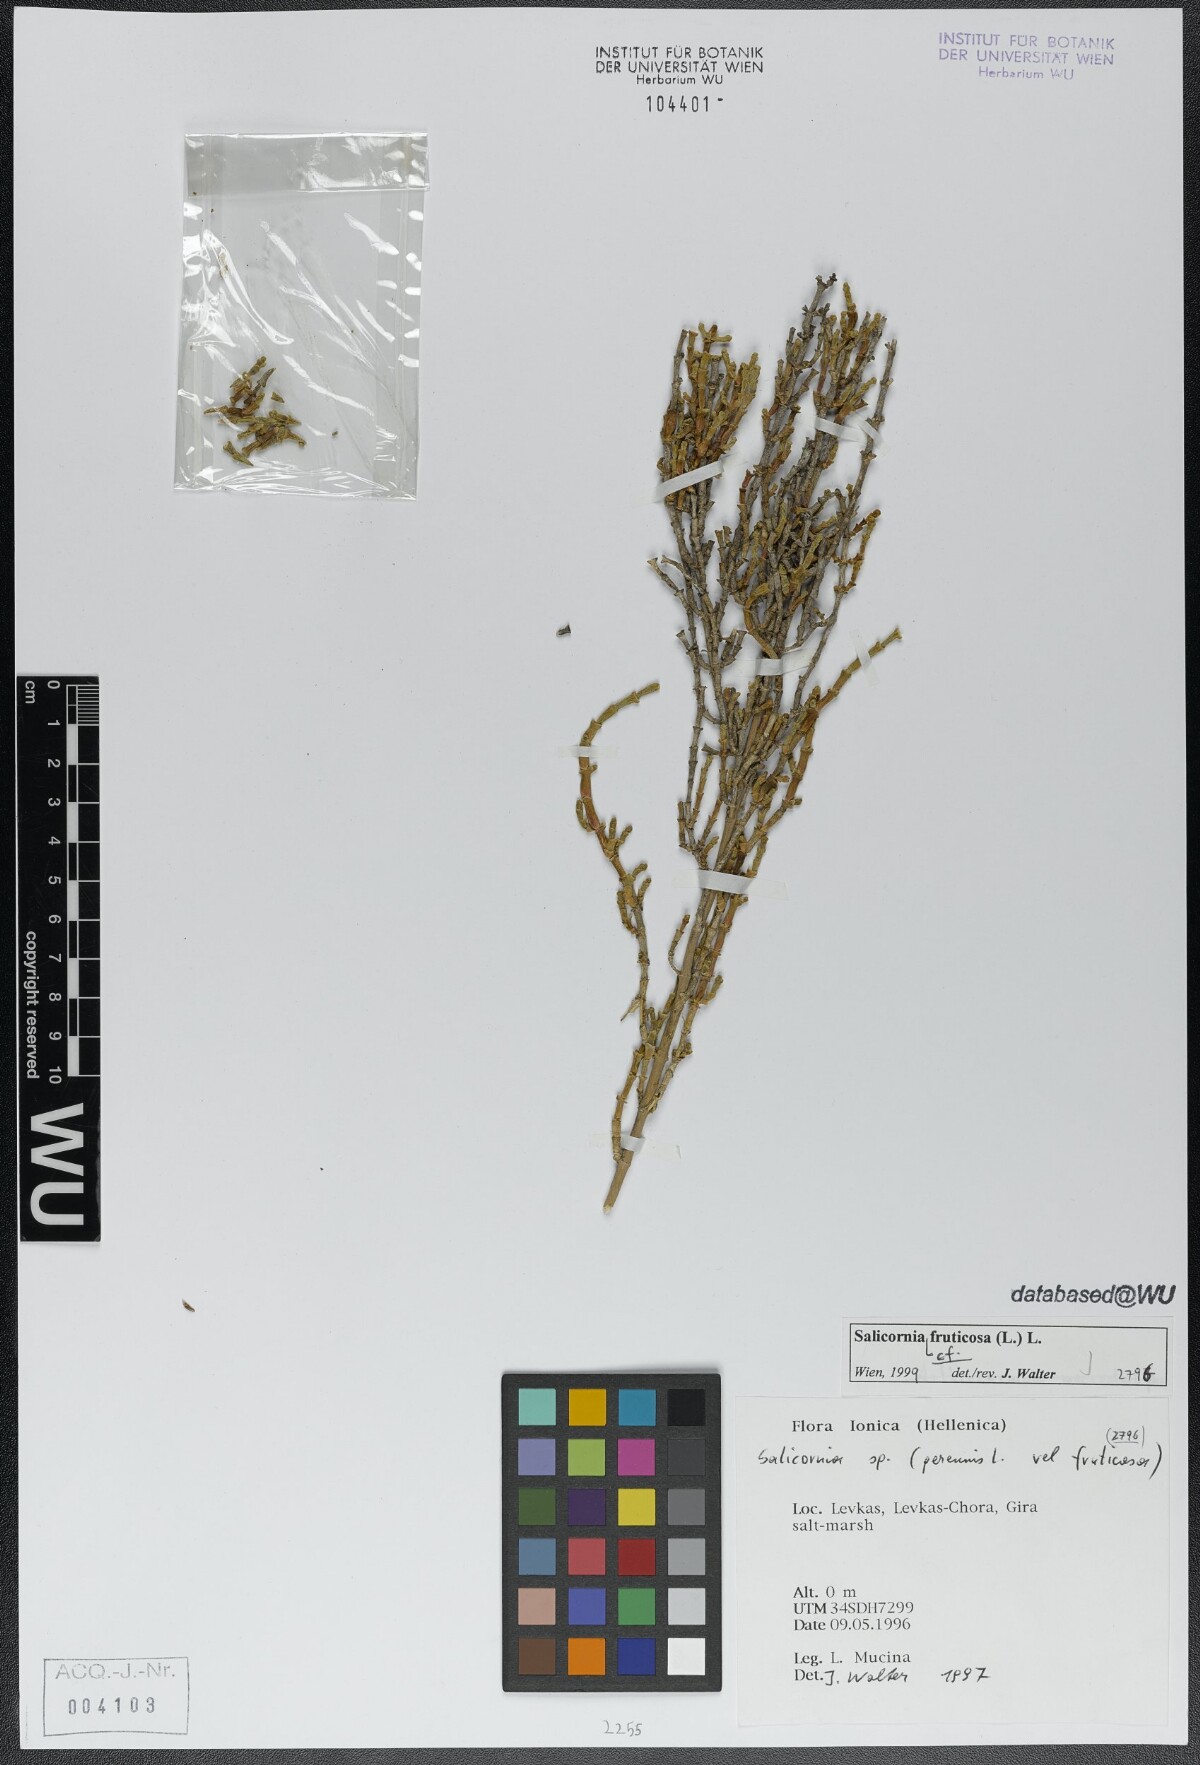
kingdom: Plantae
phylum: Tracheophyta
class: Magnoliopsida
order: Caryophyllales
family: Amaranthaceae
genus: Salicornia
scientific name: Salicornia fruticosa
